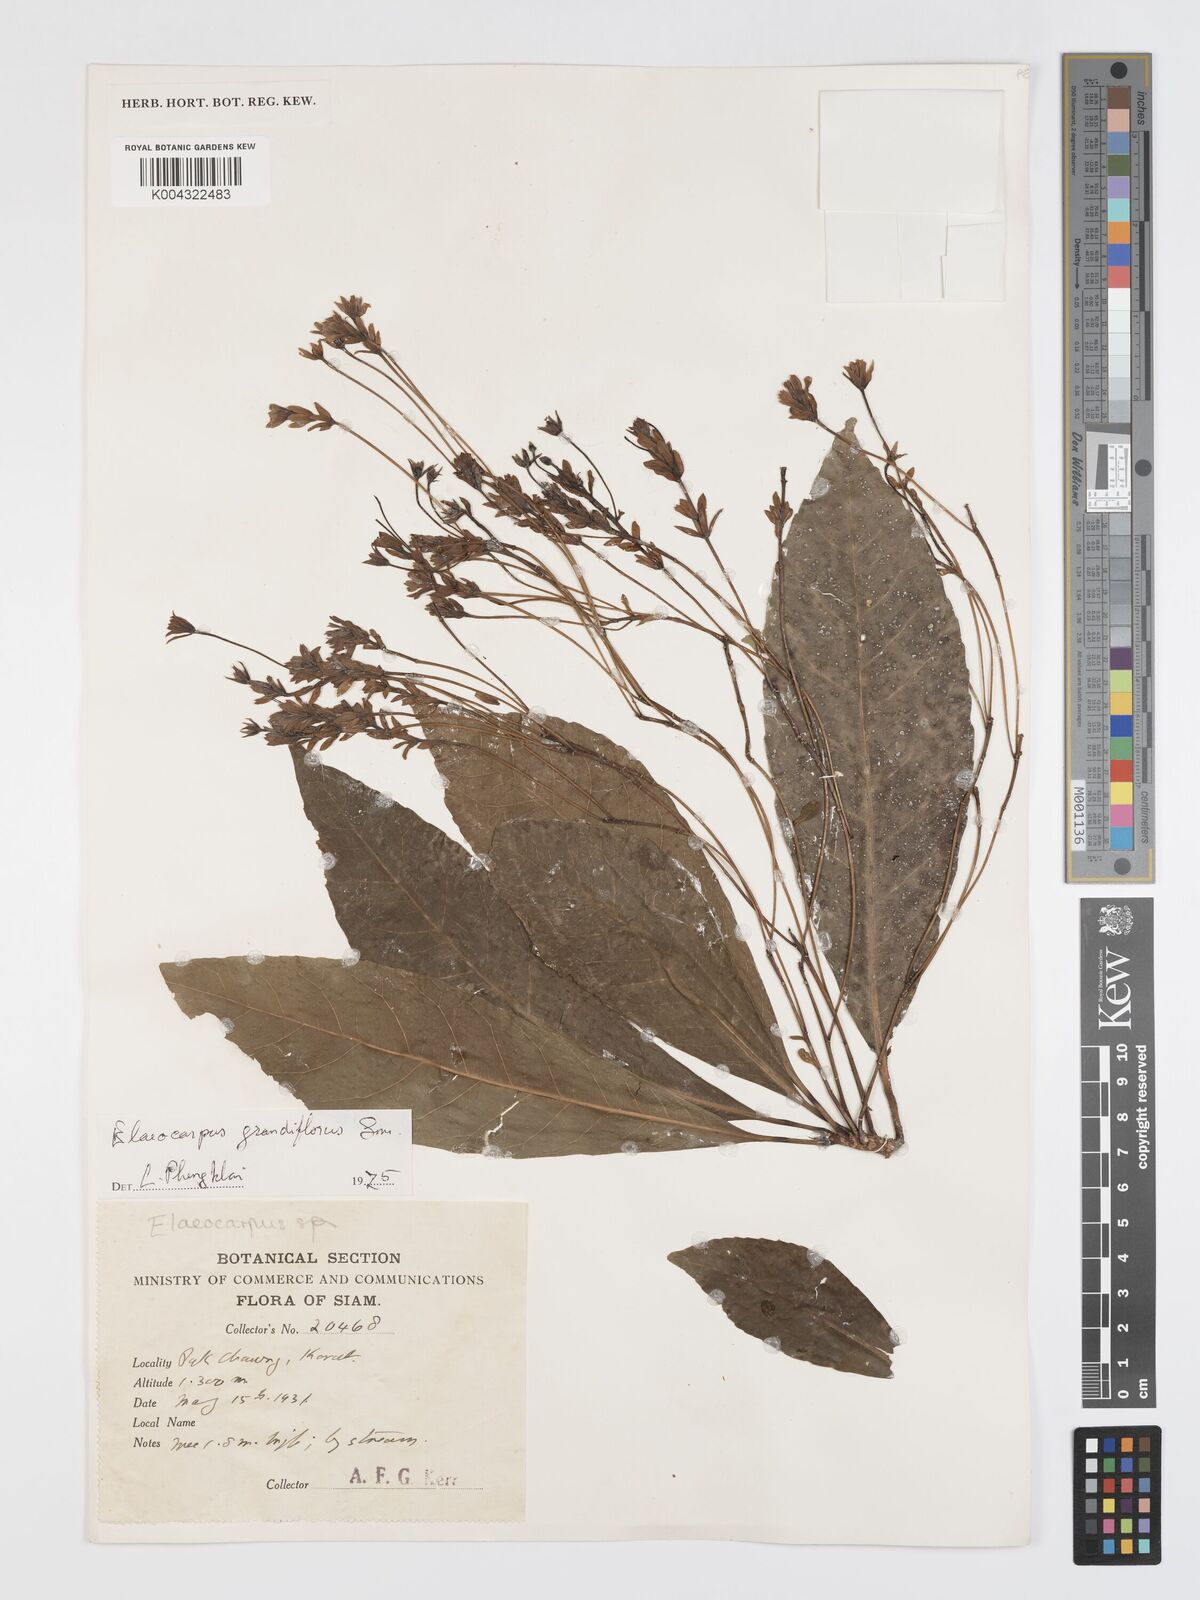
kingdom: Plantae
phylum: Tracheophyta
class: Magnoliopsida
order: Oxalidales
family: Elaeocarpaceae
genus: Elaeocarpus
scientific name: Elaeocarpus grandiflorus
